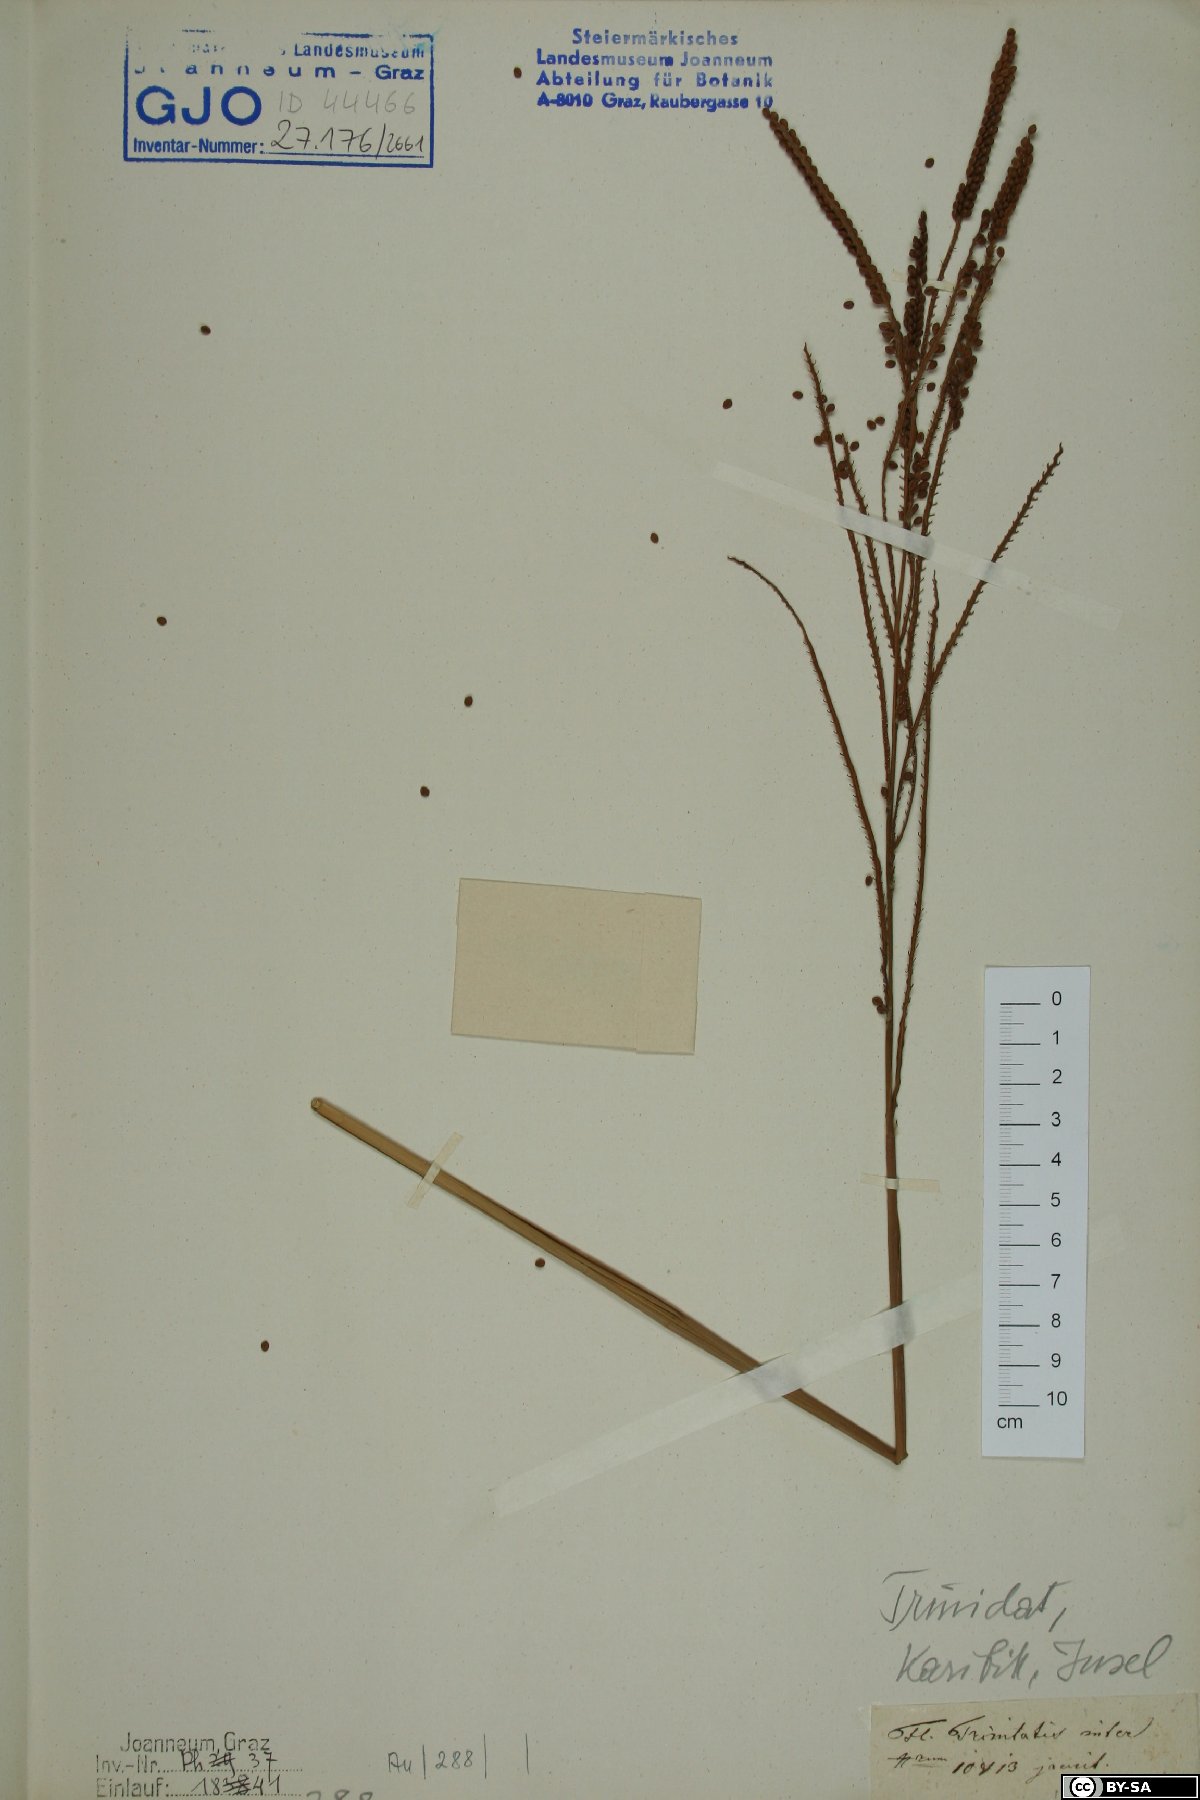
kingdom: Plantae
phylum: Tracheophyta
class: Liliopsida
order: Poales
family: Poaceae
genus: Chloris
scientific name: Chloris
